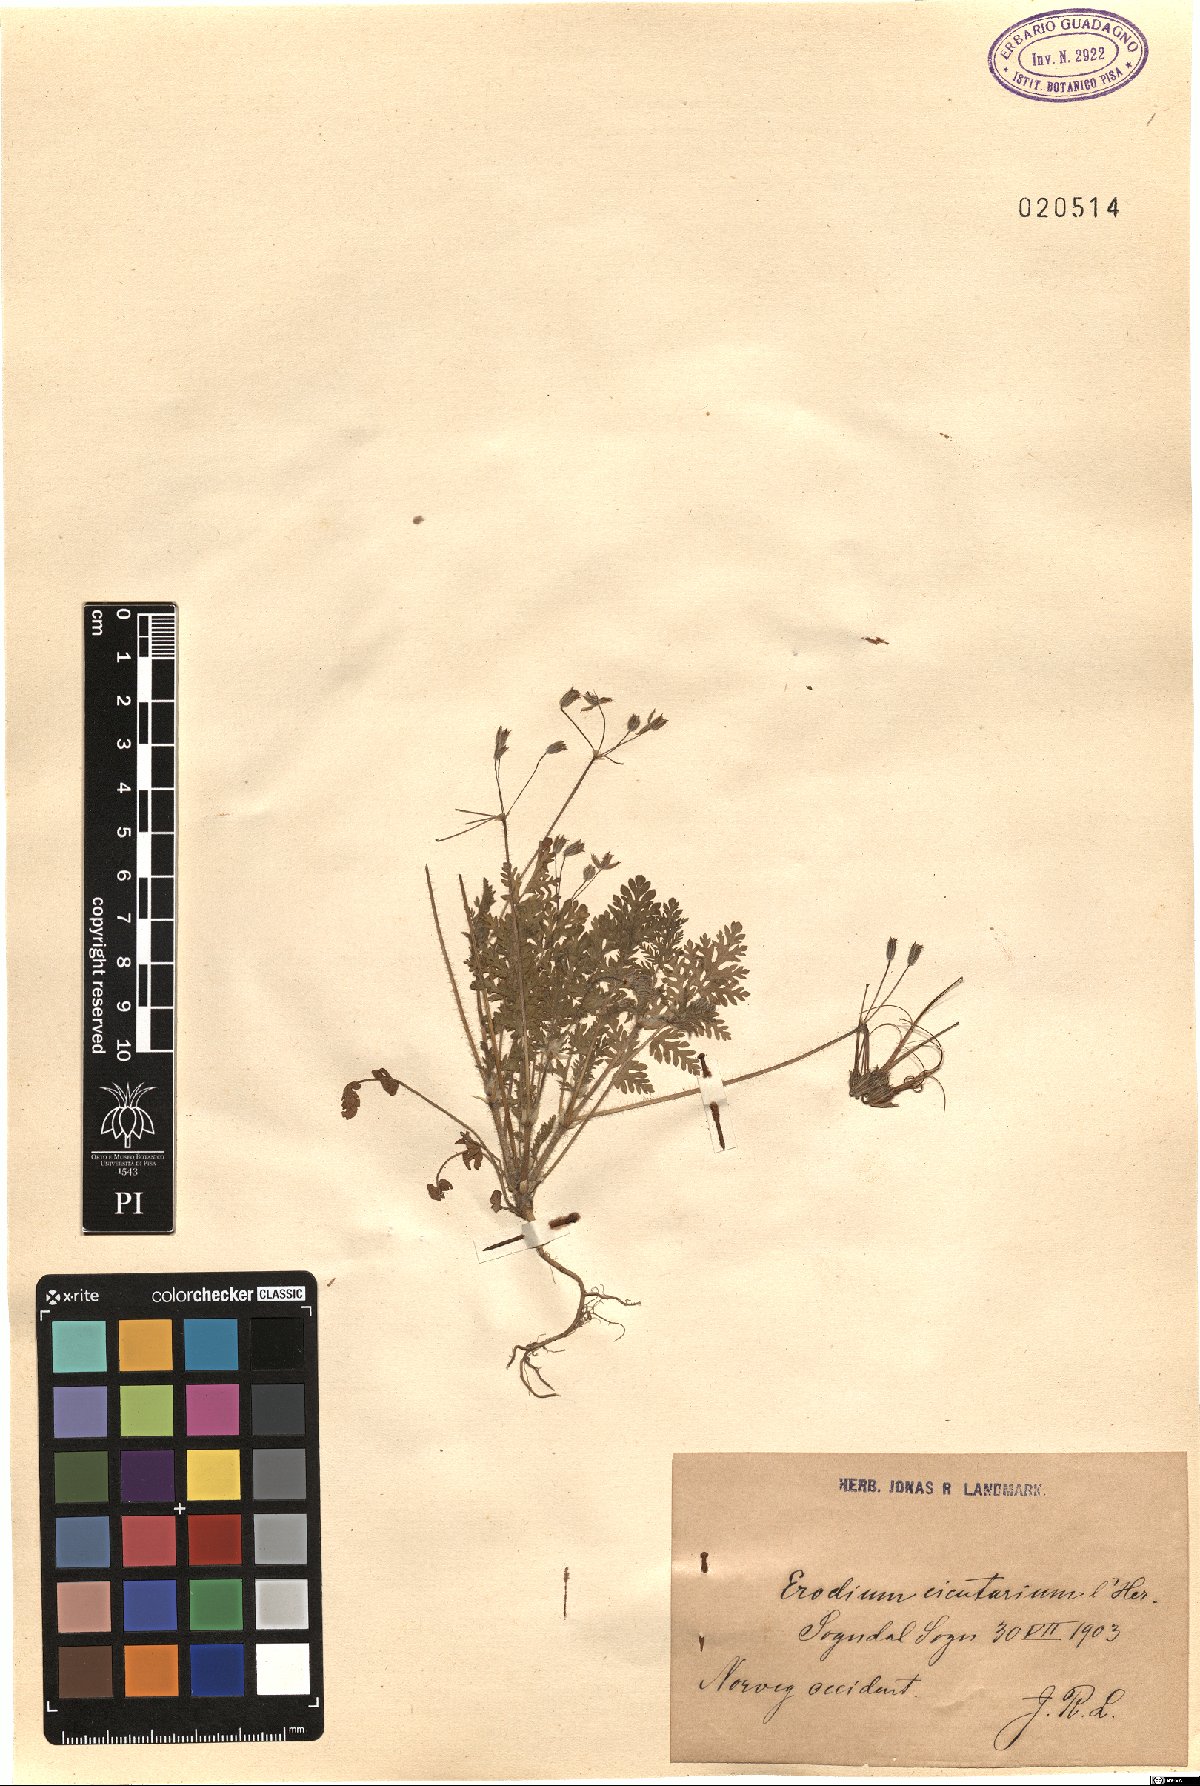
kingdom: Plantae
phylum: Tracheophyta
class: Magnoliopsida
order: Geraniales
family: Geraniaceae
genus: Erodium
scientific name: Erodium cicutarium
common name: Common stork's-bill
